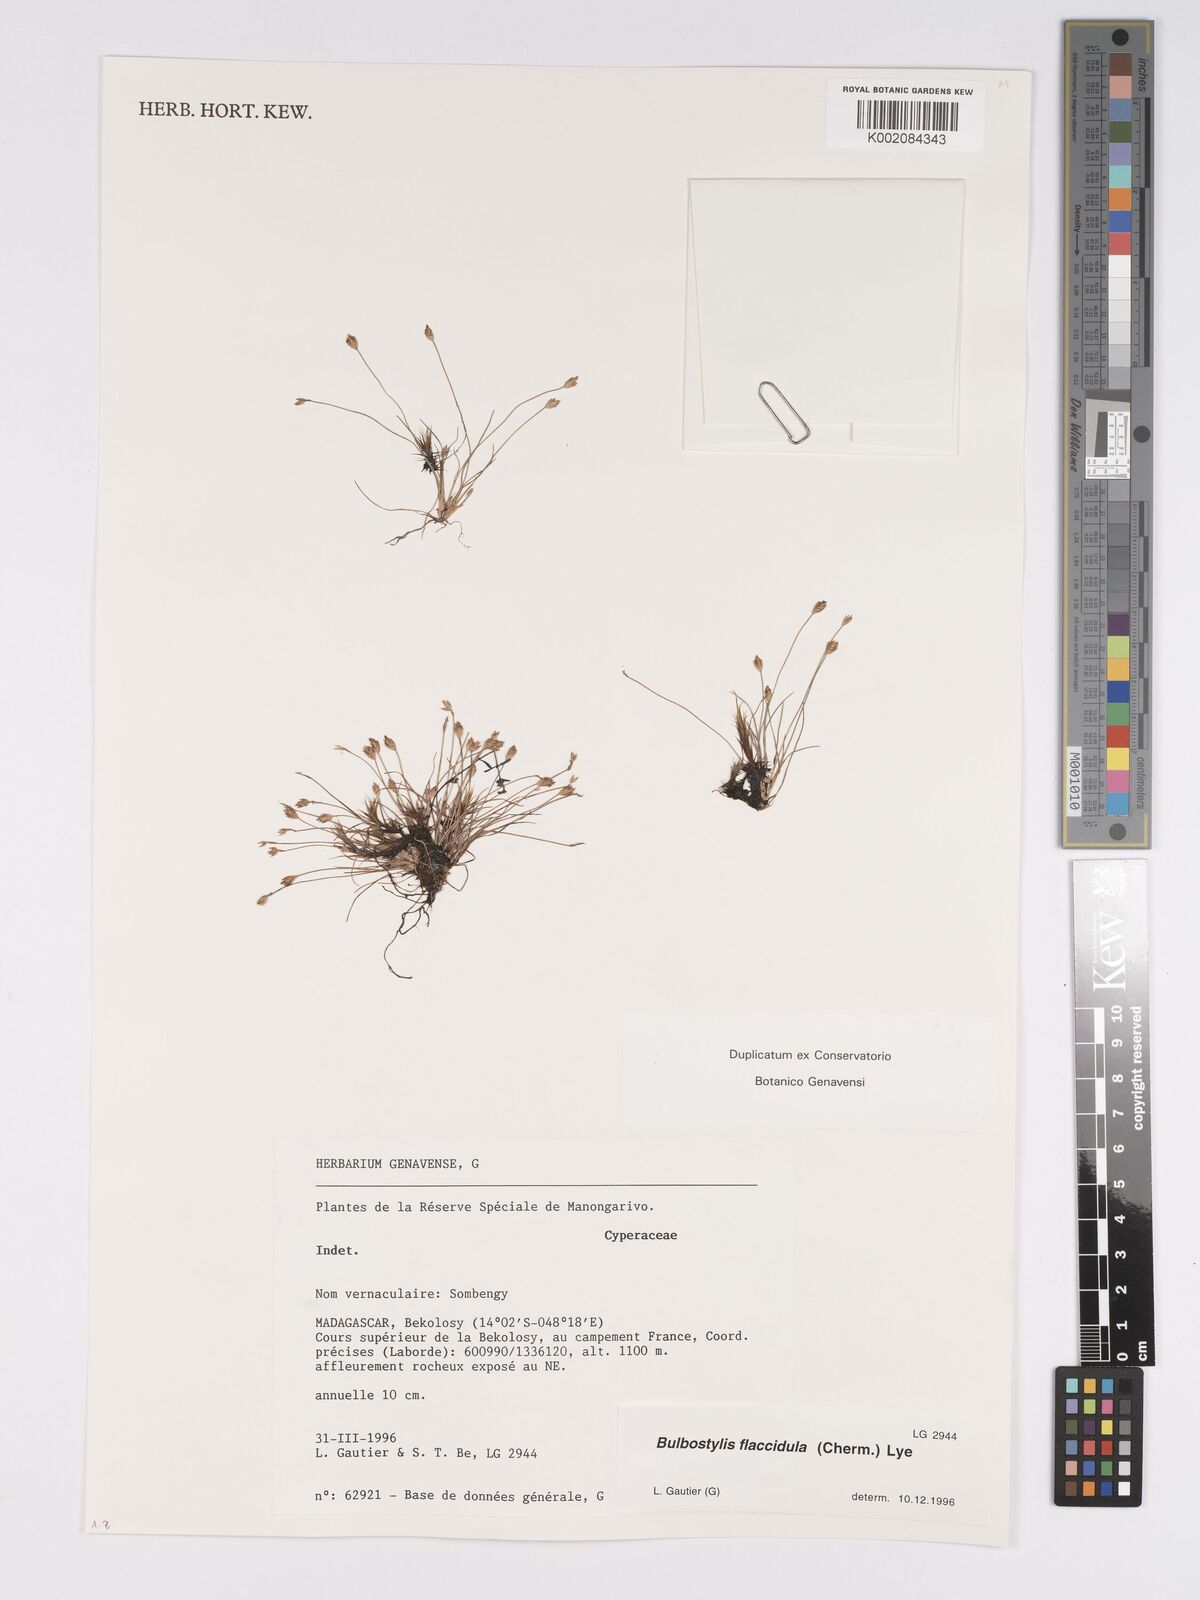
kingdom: Plantae
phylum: Tracheophyta
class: Liliopsida
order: Poales
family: Cyperaceae
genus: Bulbostylis
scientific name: Bulbostylis
